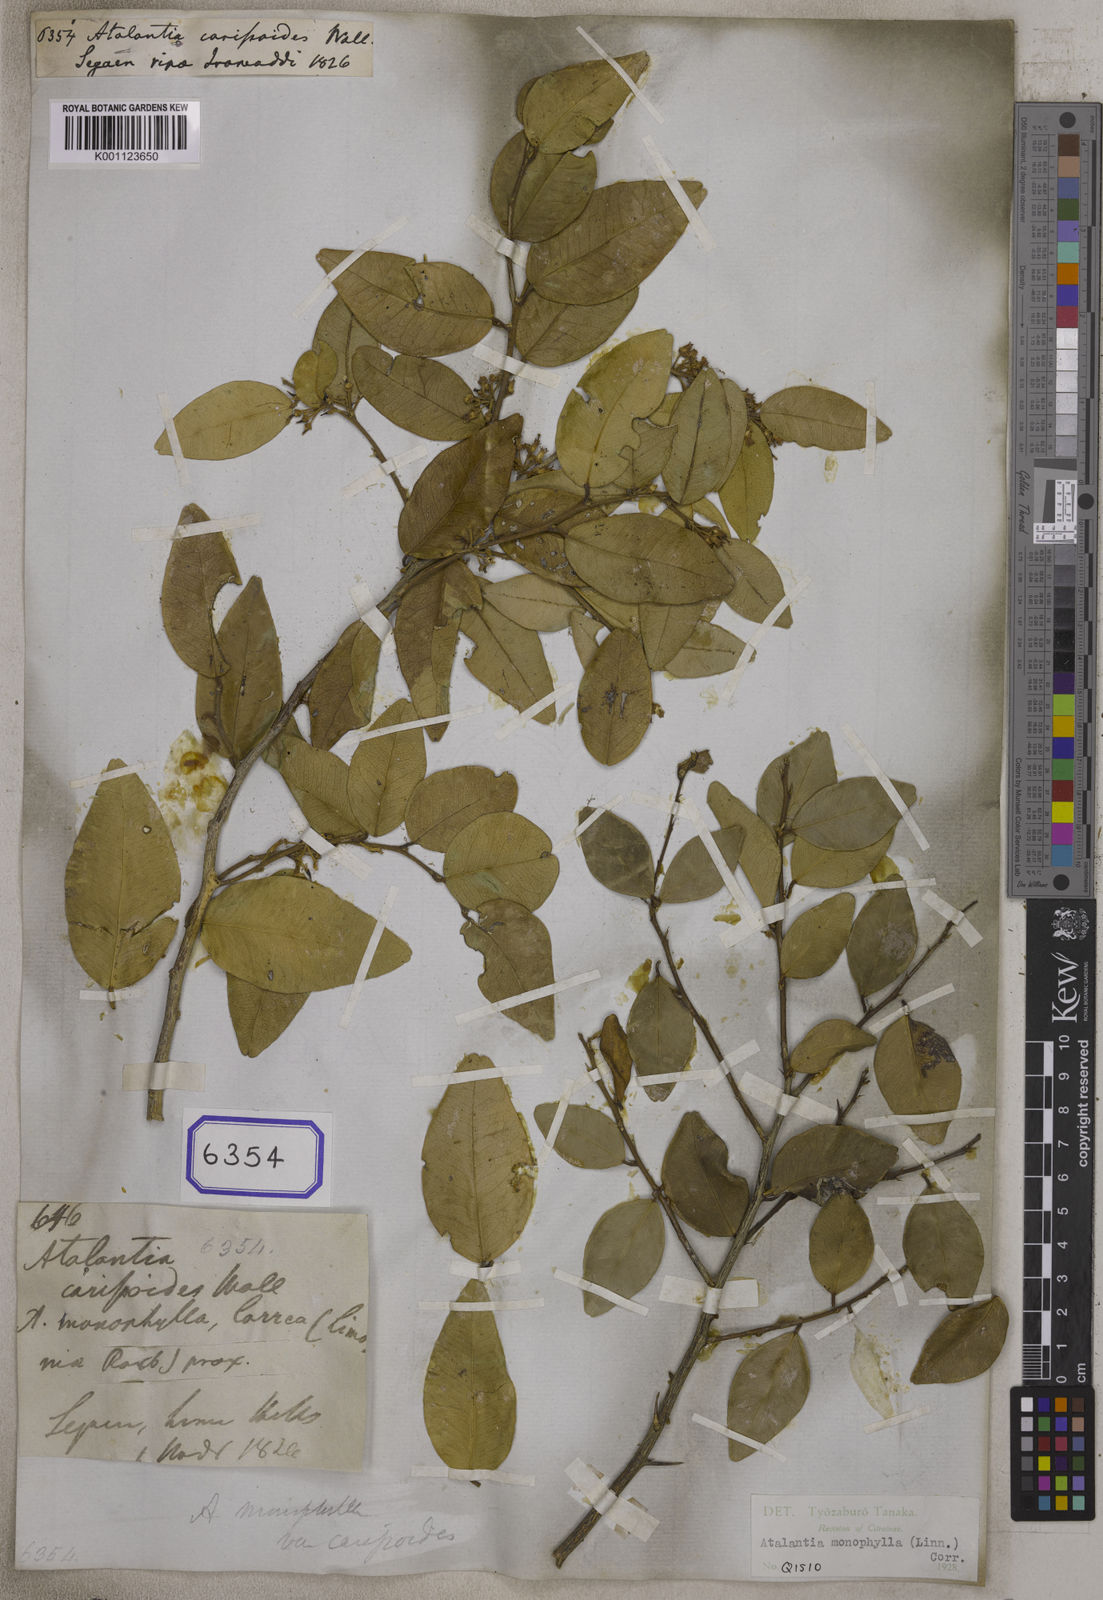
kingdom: Plantae
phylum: Tracheophyta
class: Magnoliopsida
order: Sapindales
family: Rutaceae
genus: Atalantia
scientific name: Atalantia monophylla
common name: Indian-atalantia
